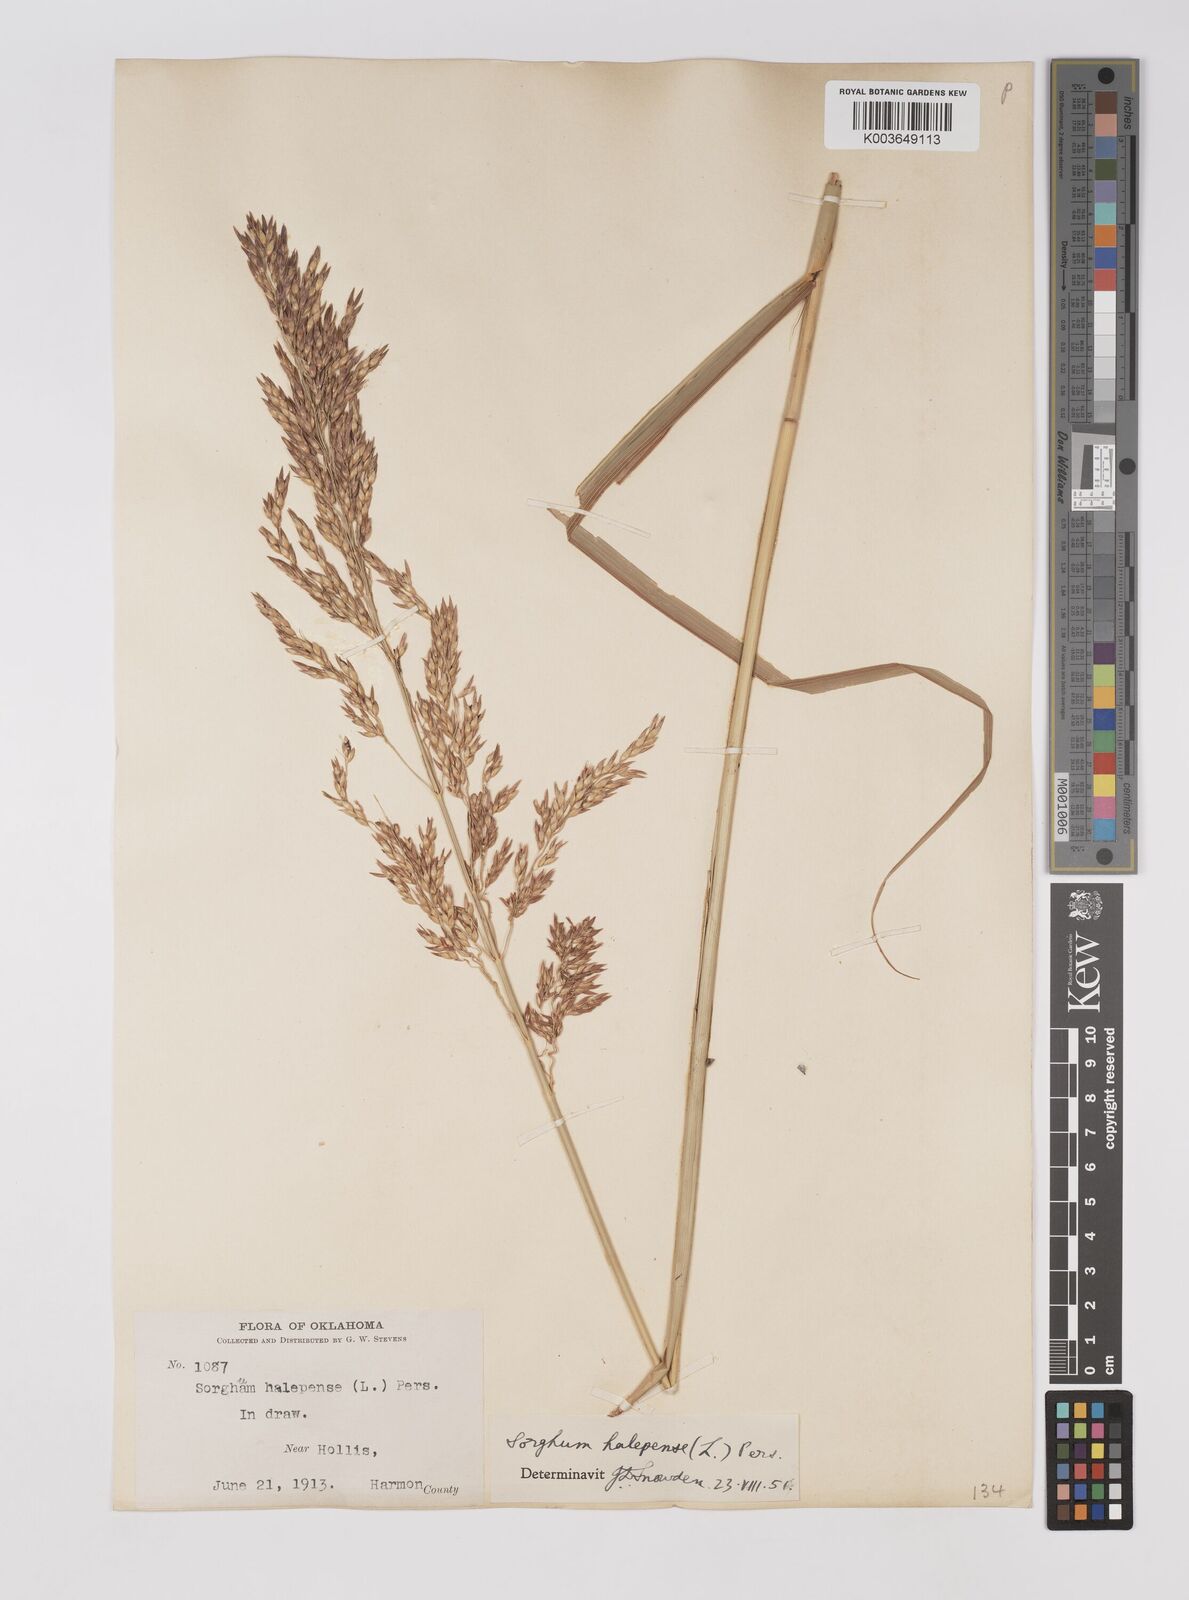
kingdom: Plantae
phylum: Tracheophyta
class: Liliopsida
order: Poales
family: Poaceae
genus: Sorghum
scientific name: Sorghum halepense
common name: Johnson-grass
